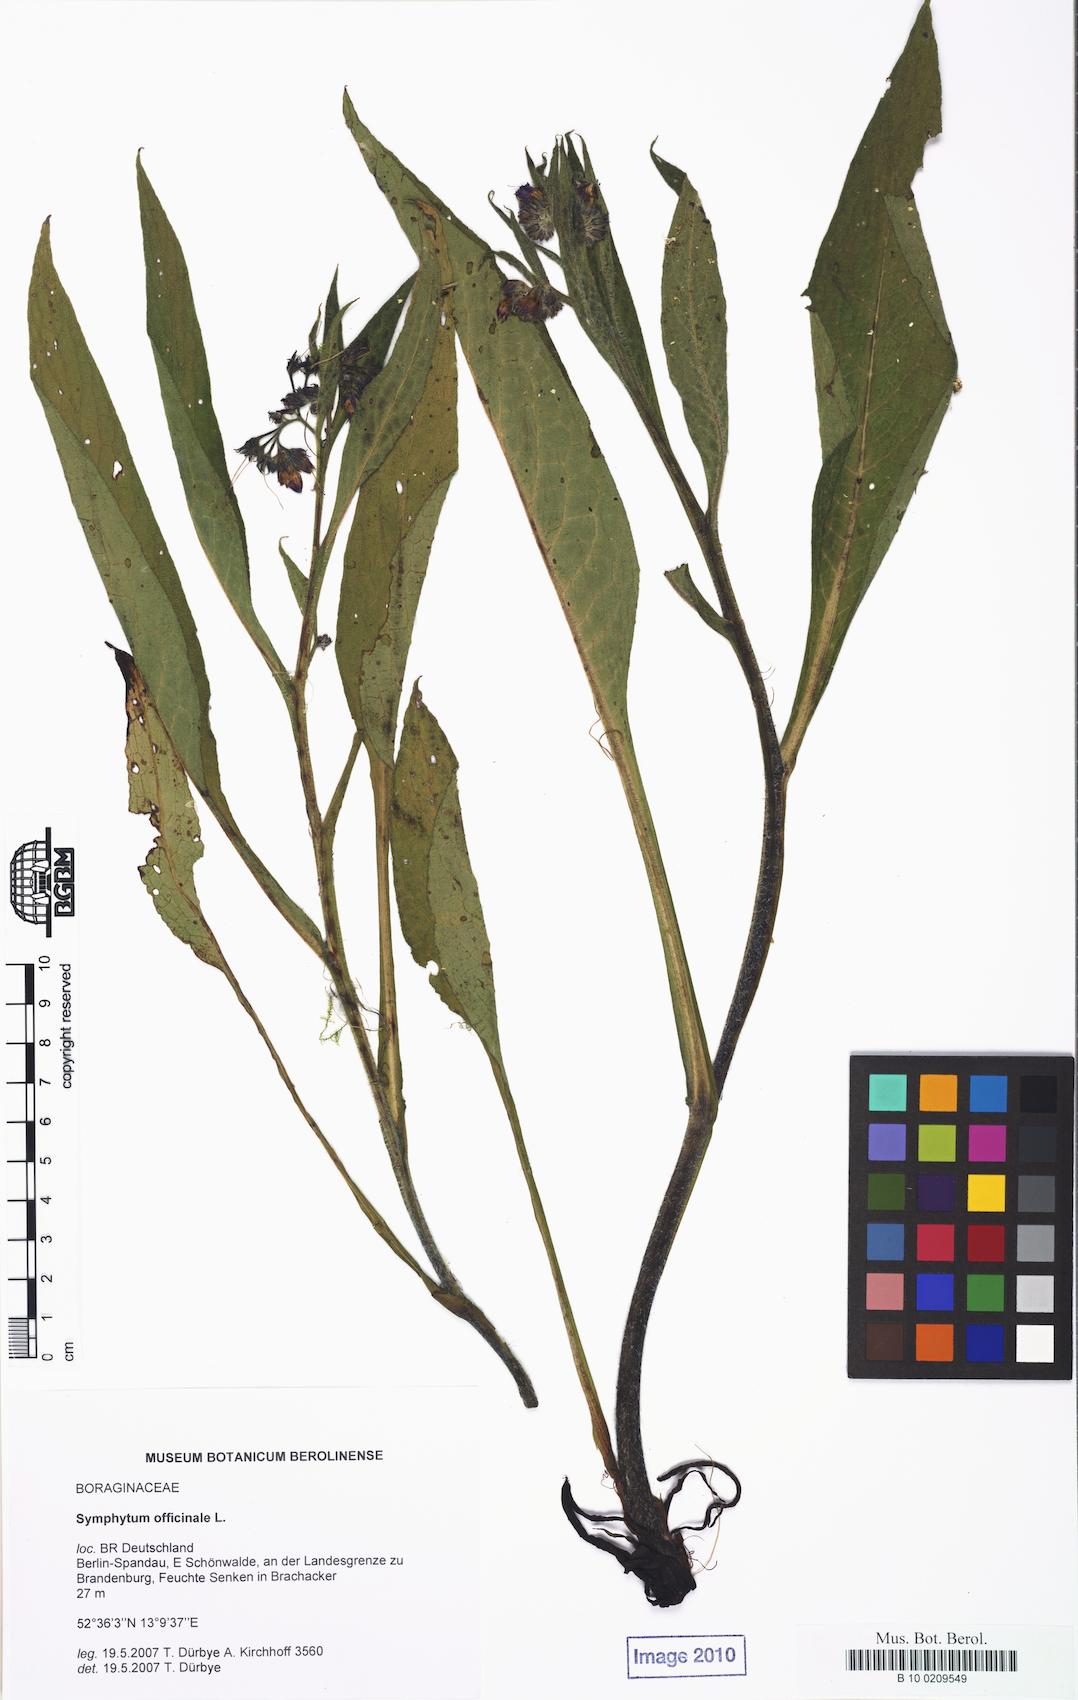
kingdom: Plantae
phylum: Tracheophyta
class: Magnoliopsida
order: Boraginales
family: Boraginaceae
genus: Symphytum
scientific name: Symphytum officinale
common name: Common comfrey
